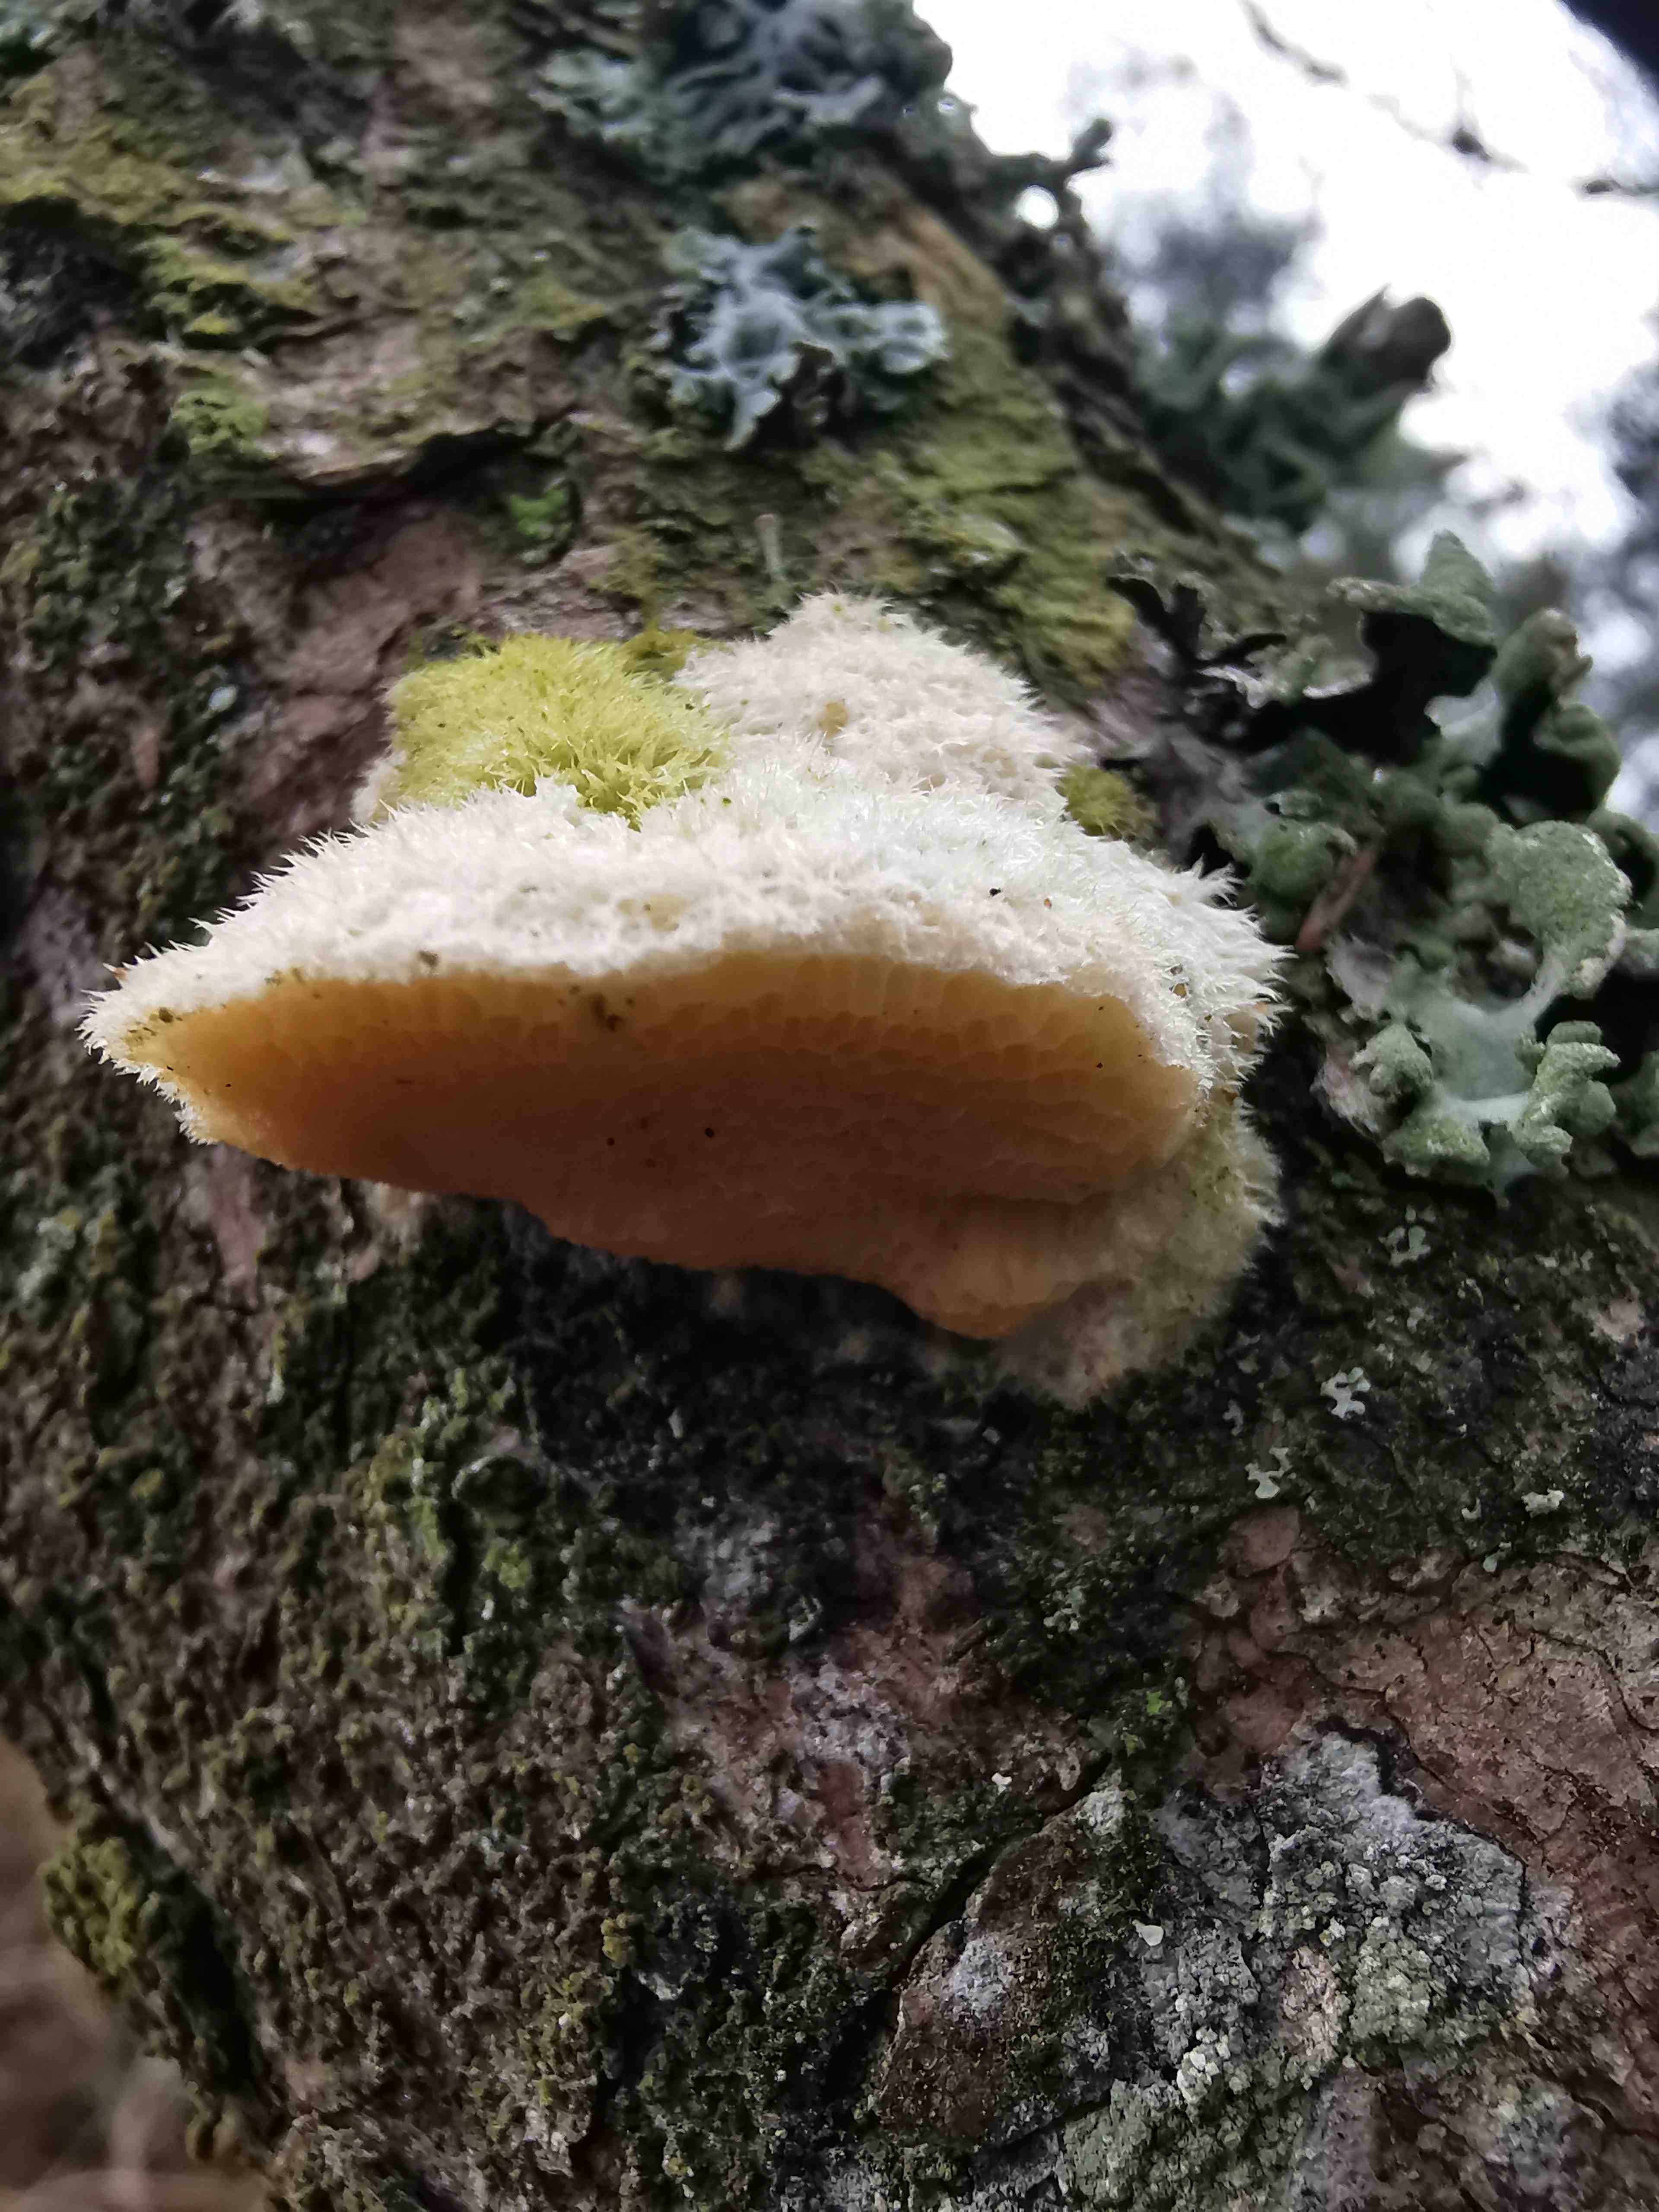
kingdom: Fungi
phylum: Basidiomycota
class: Agaricomycetes
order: Polyporales
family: Polyporaceae
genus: Diplomitoporus
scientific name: Diplomitoporus flavescens
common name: fyrre-elastikporesvamp
